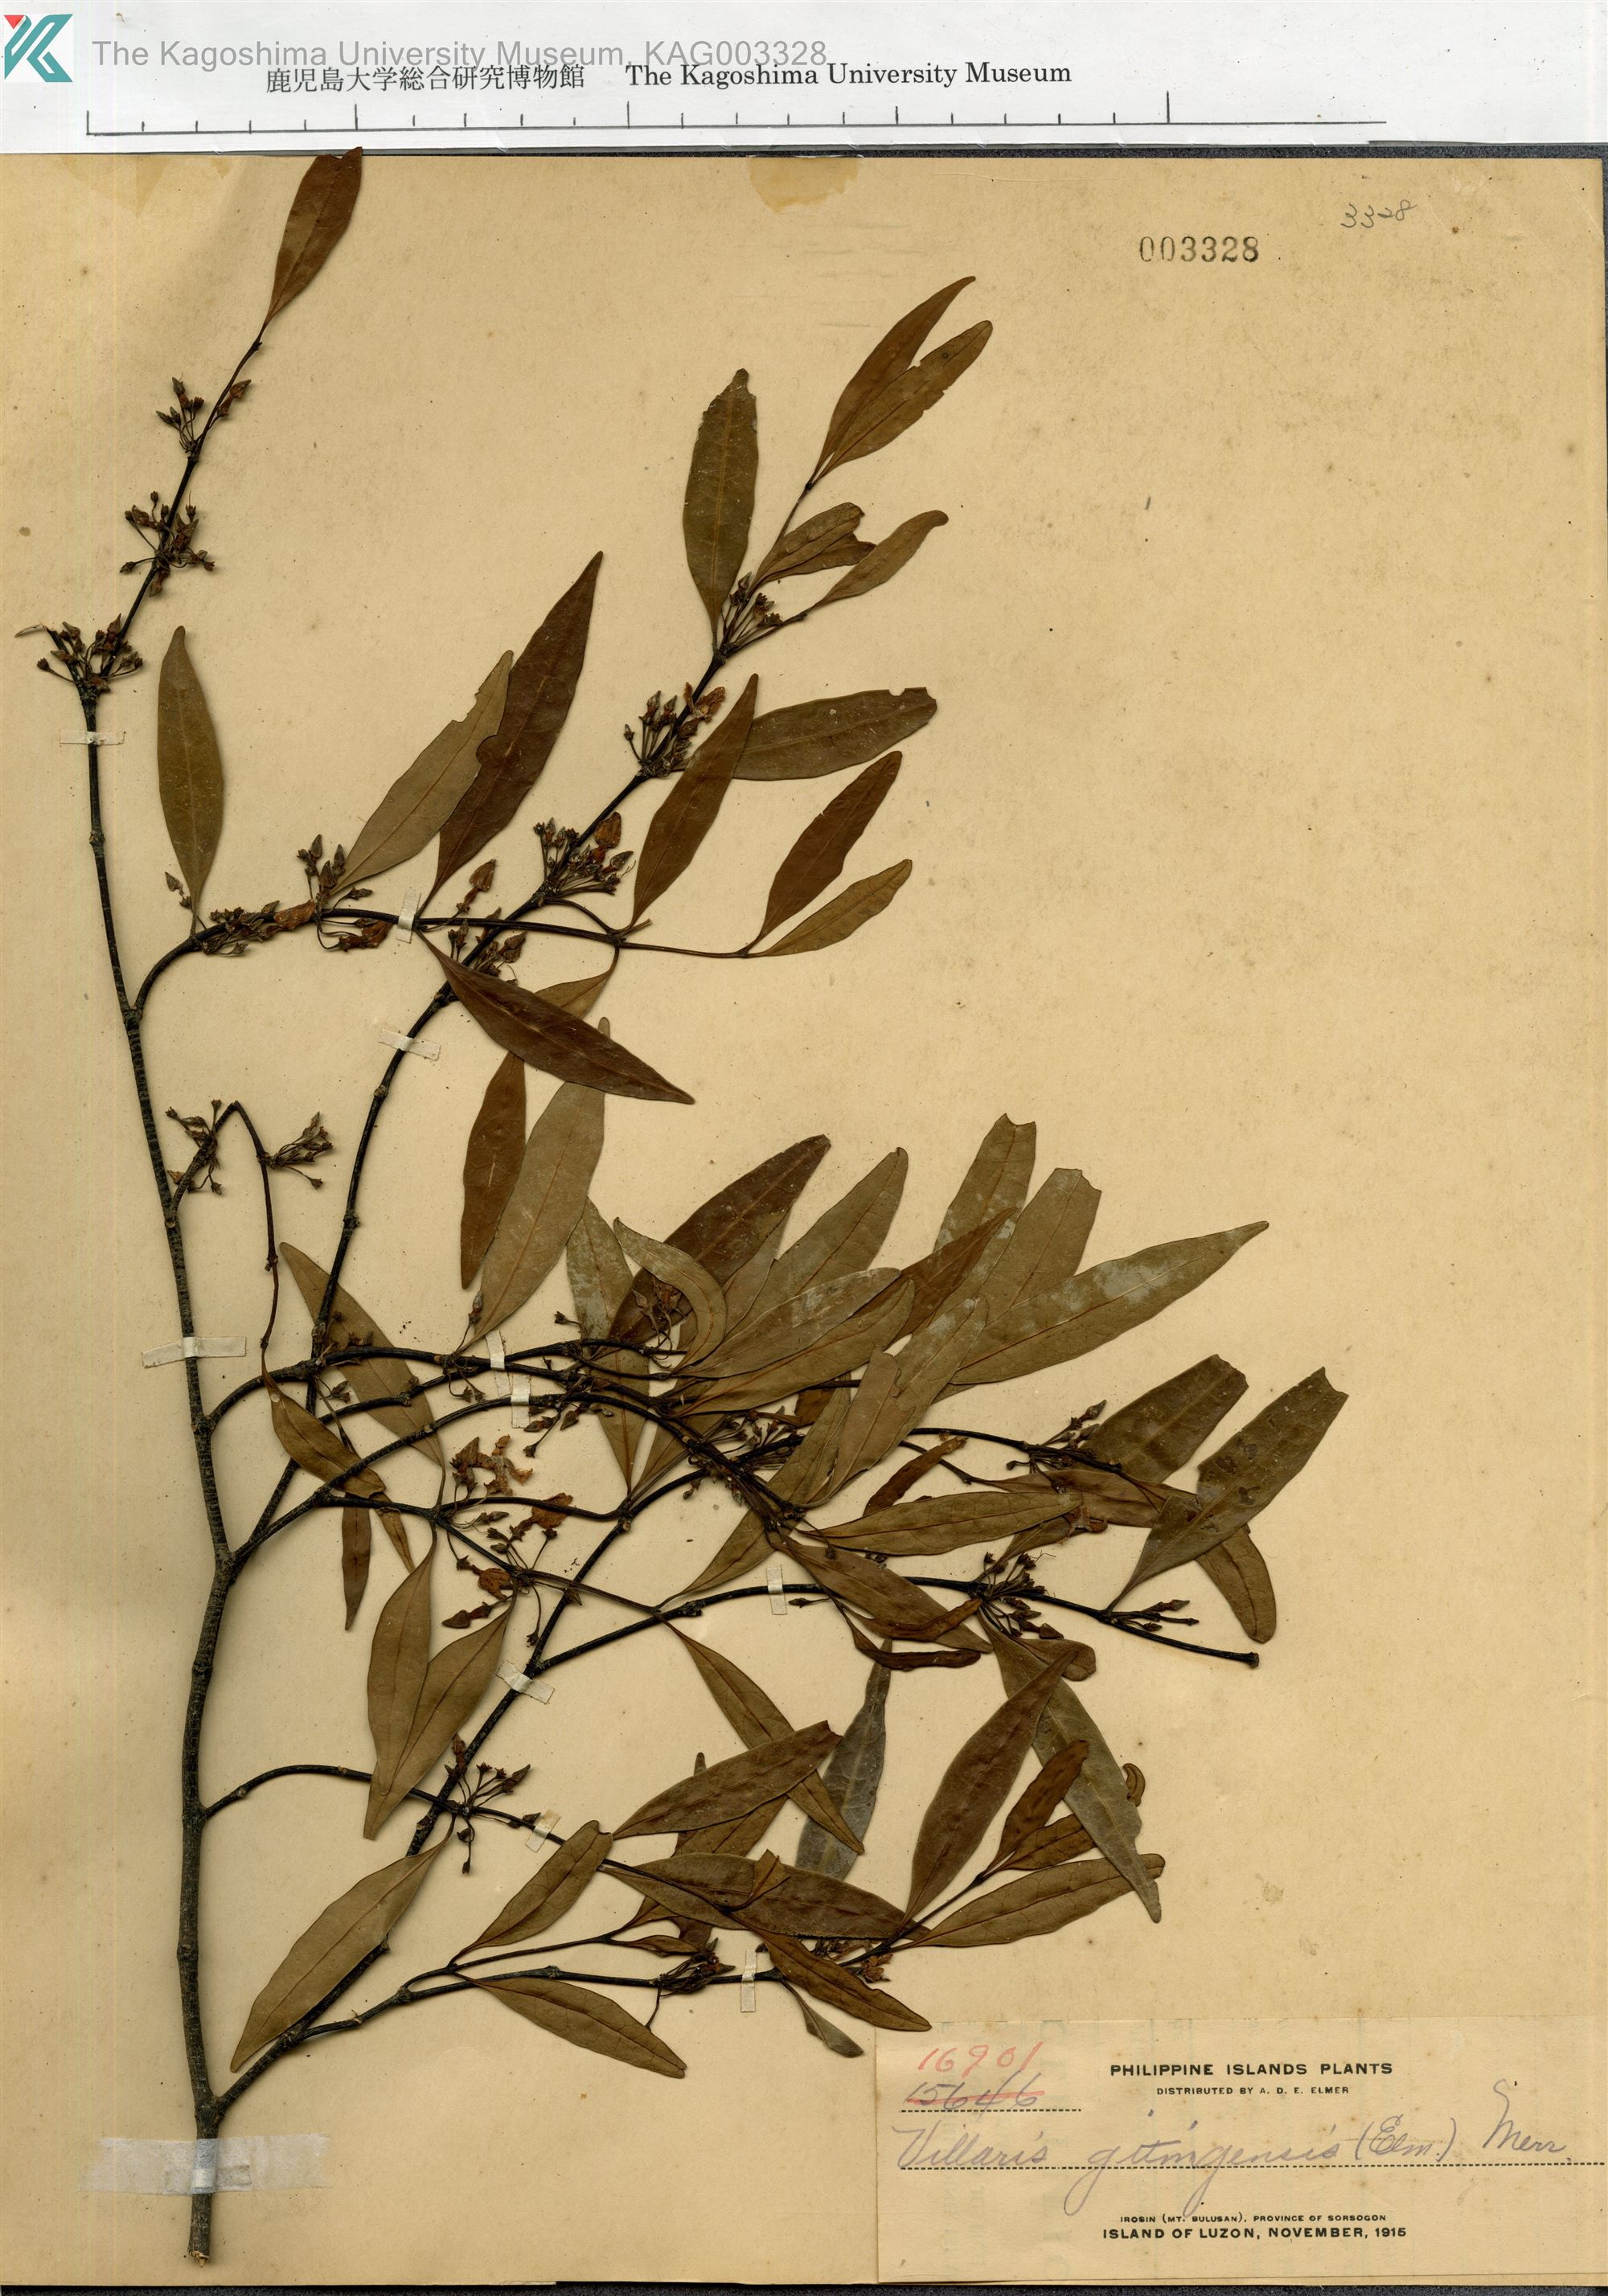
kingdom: Plantae
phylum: Tracheophyta
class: Magnoliopsida
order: Gentianales
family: Apocynaceae
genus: Kibatalia
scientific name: Kibatalia gitingensis
